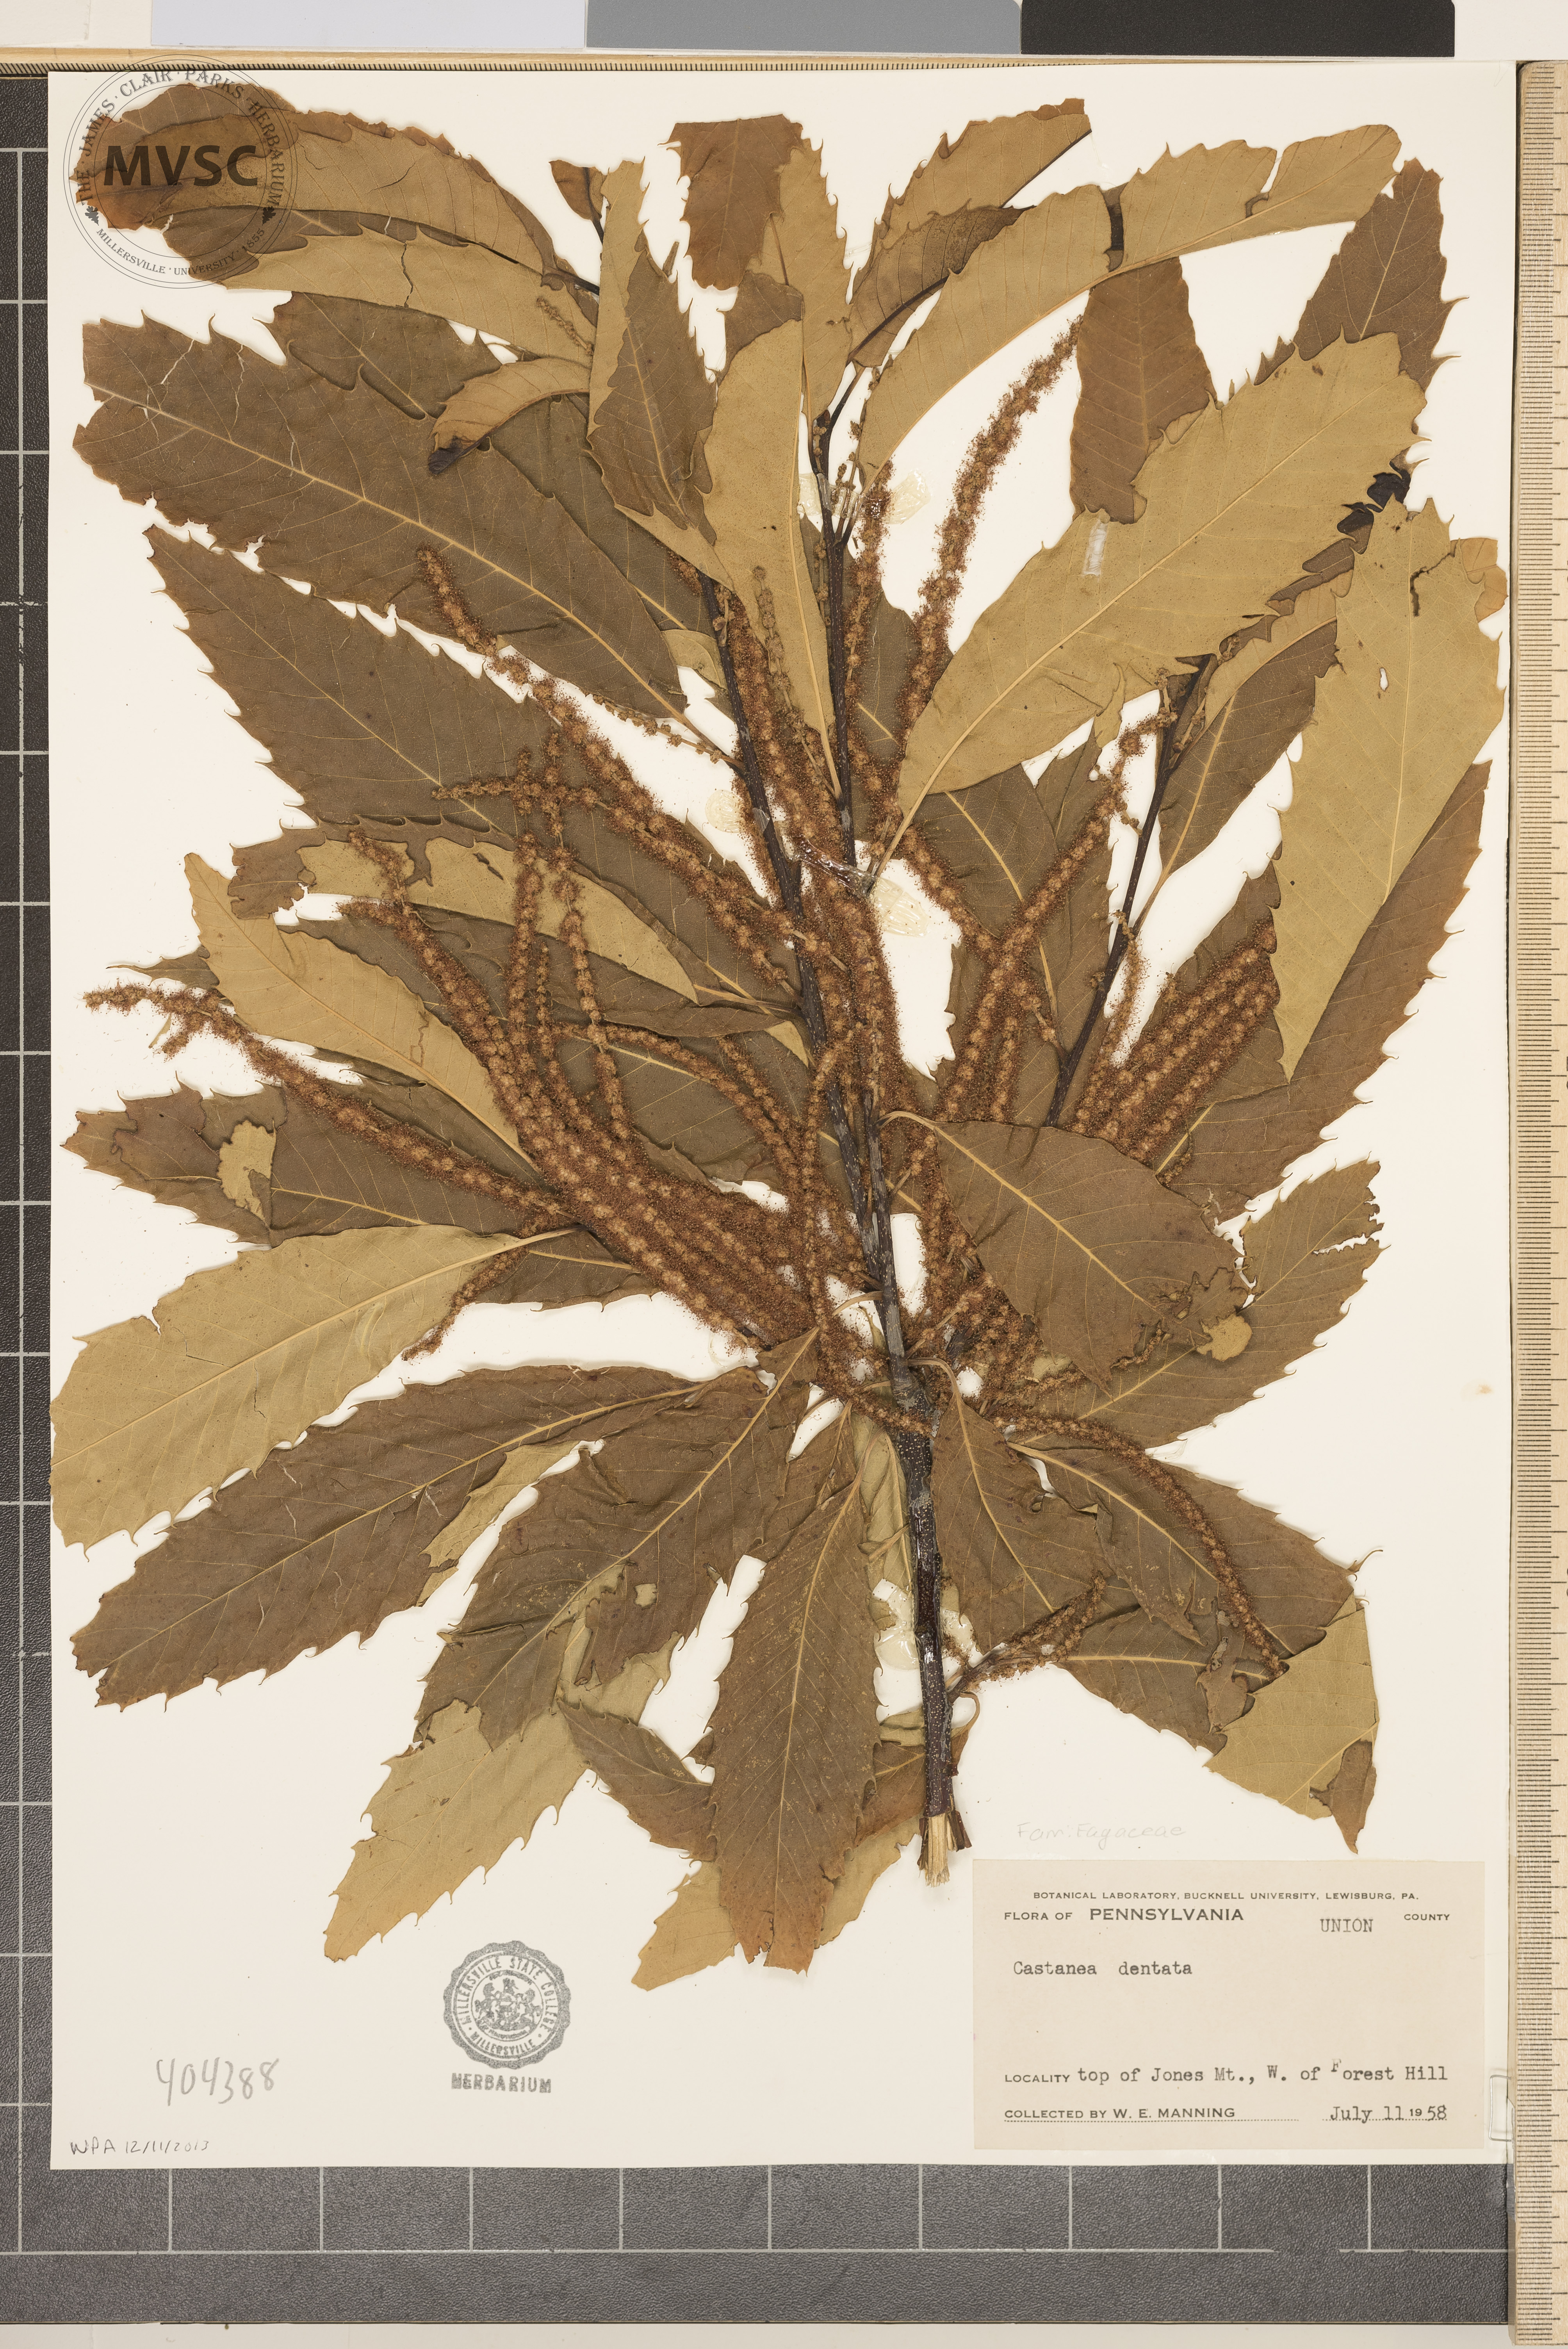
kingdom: Plantae
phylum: Tracheophyta
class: Magnoliopsida
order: Fagales
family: Fagaceae
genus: Castanea
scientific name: Castanea dentata
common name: American chestnut
